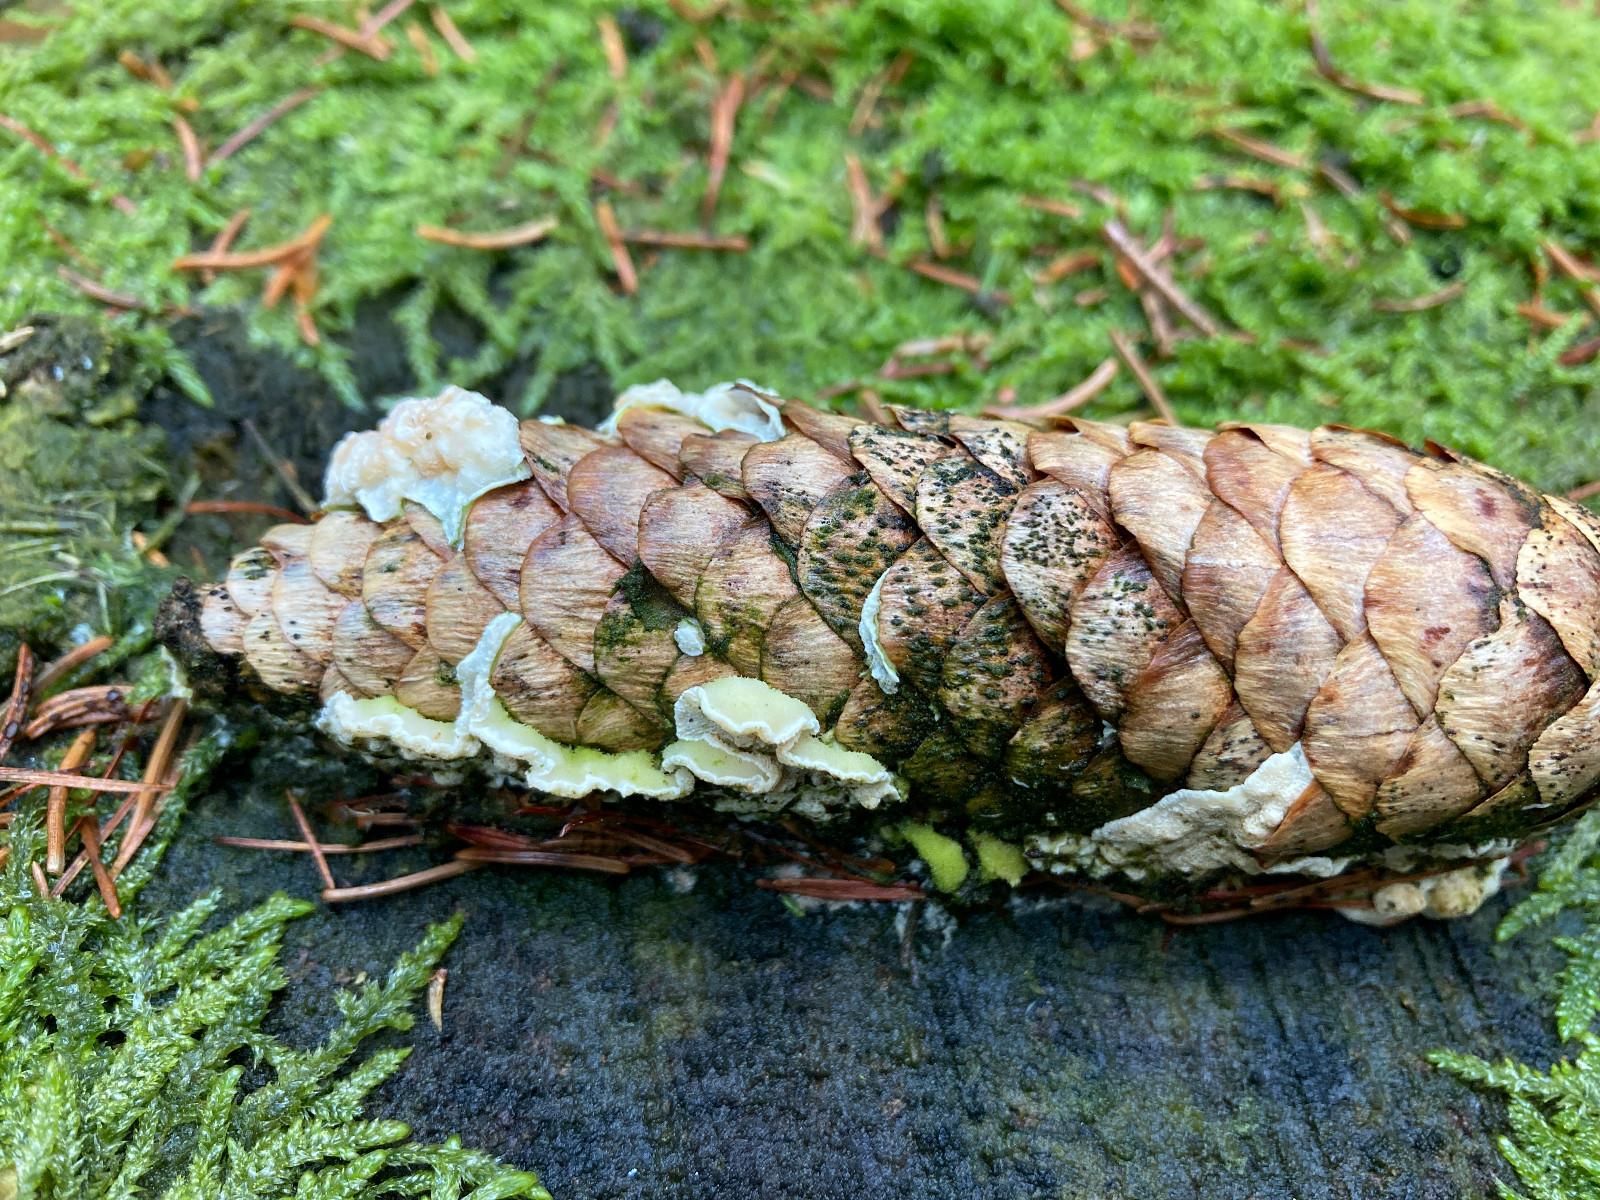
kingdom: Fungi
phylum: Basidiomycota
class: Agaricomycetes
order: Polyporales
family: Incrustoporiaceae
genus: Skeletocutis
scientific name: Skeletocutis amorpha
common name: orange krystalporesvamp
